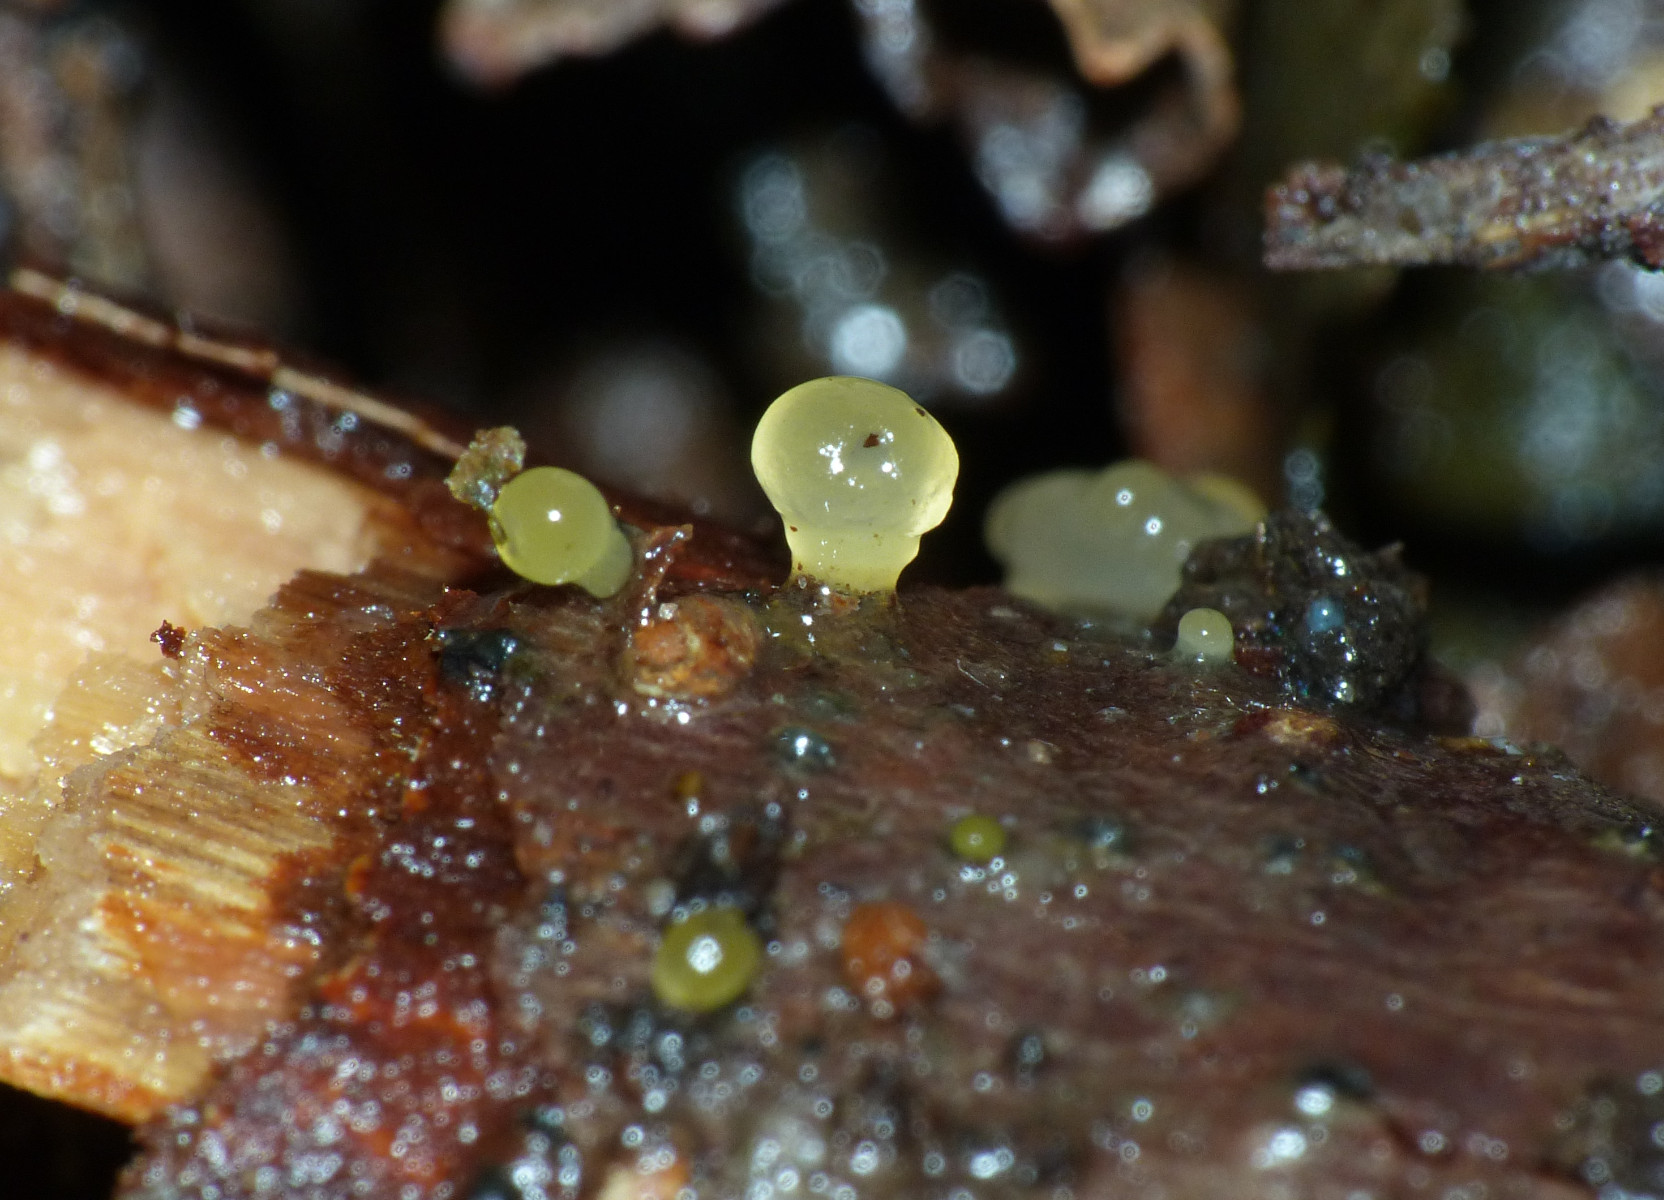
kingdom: Fungi
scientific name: Fungi
